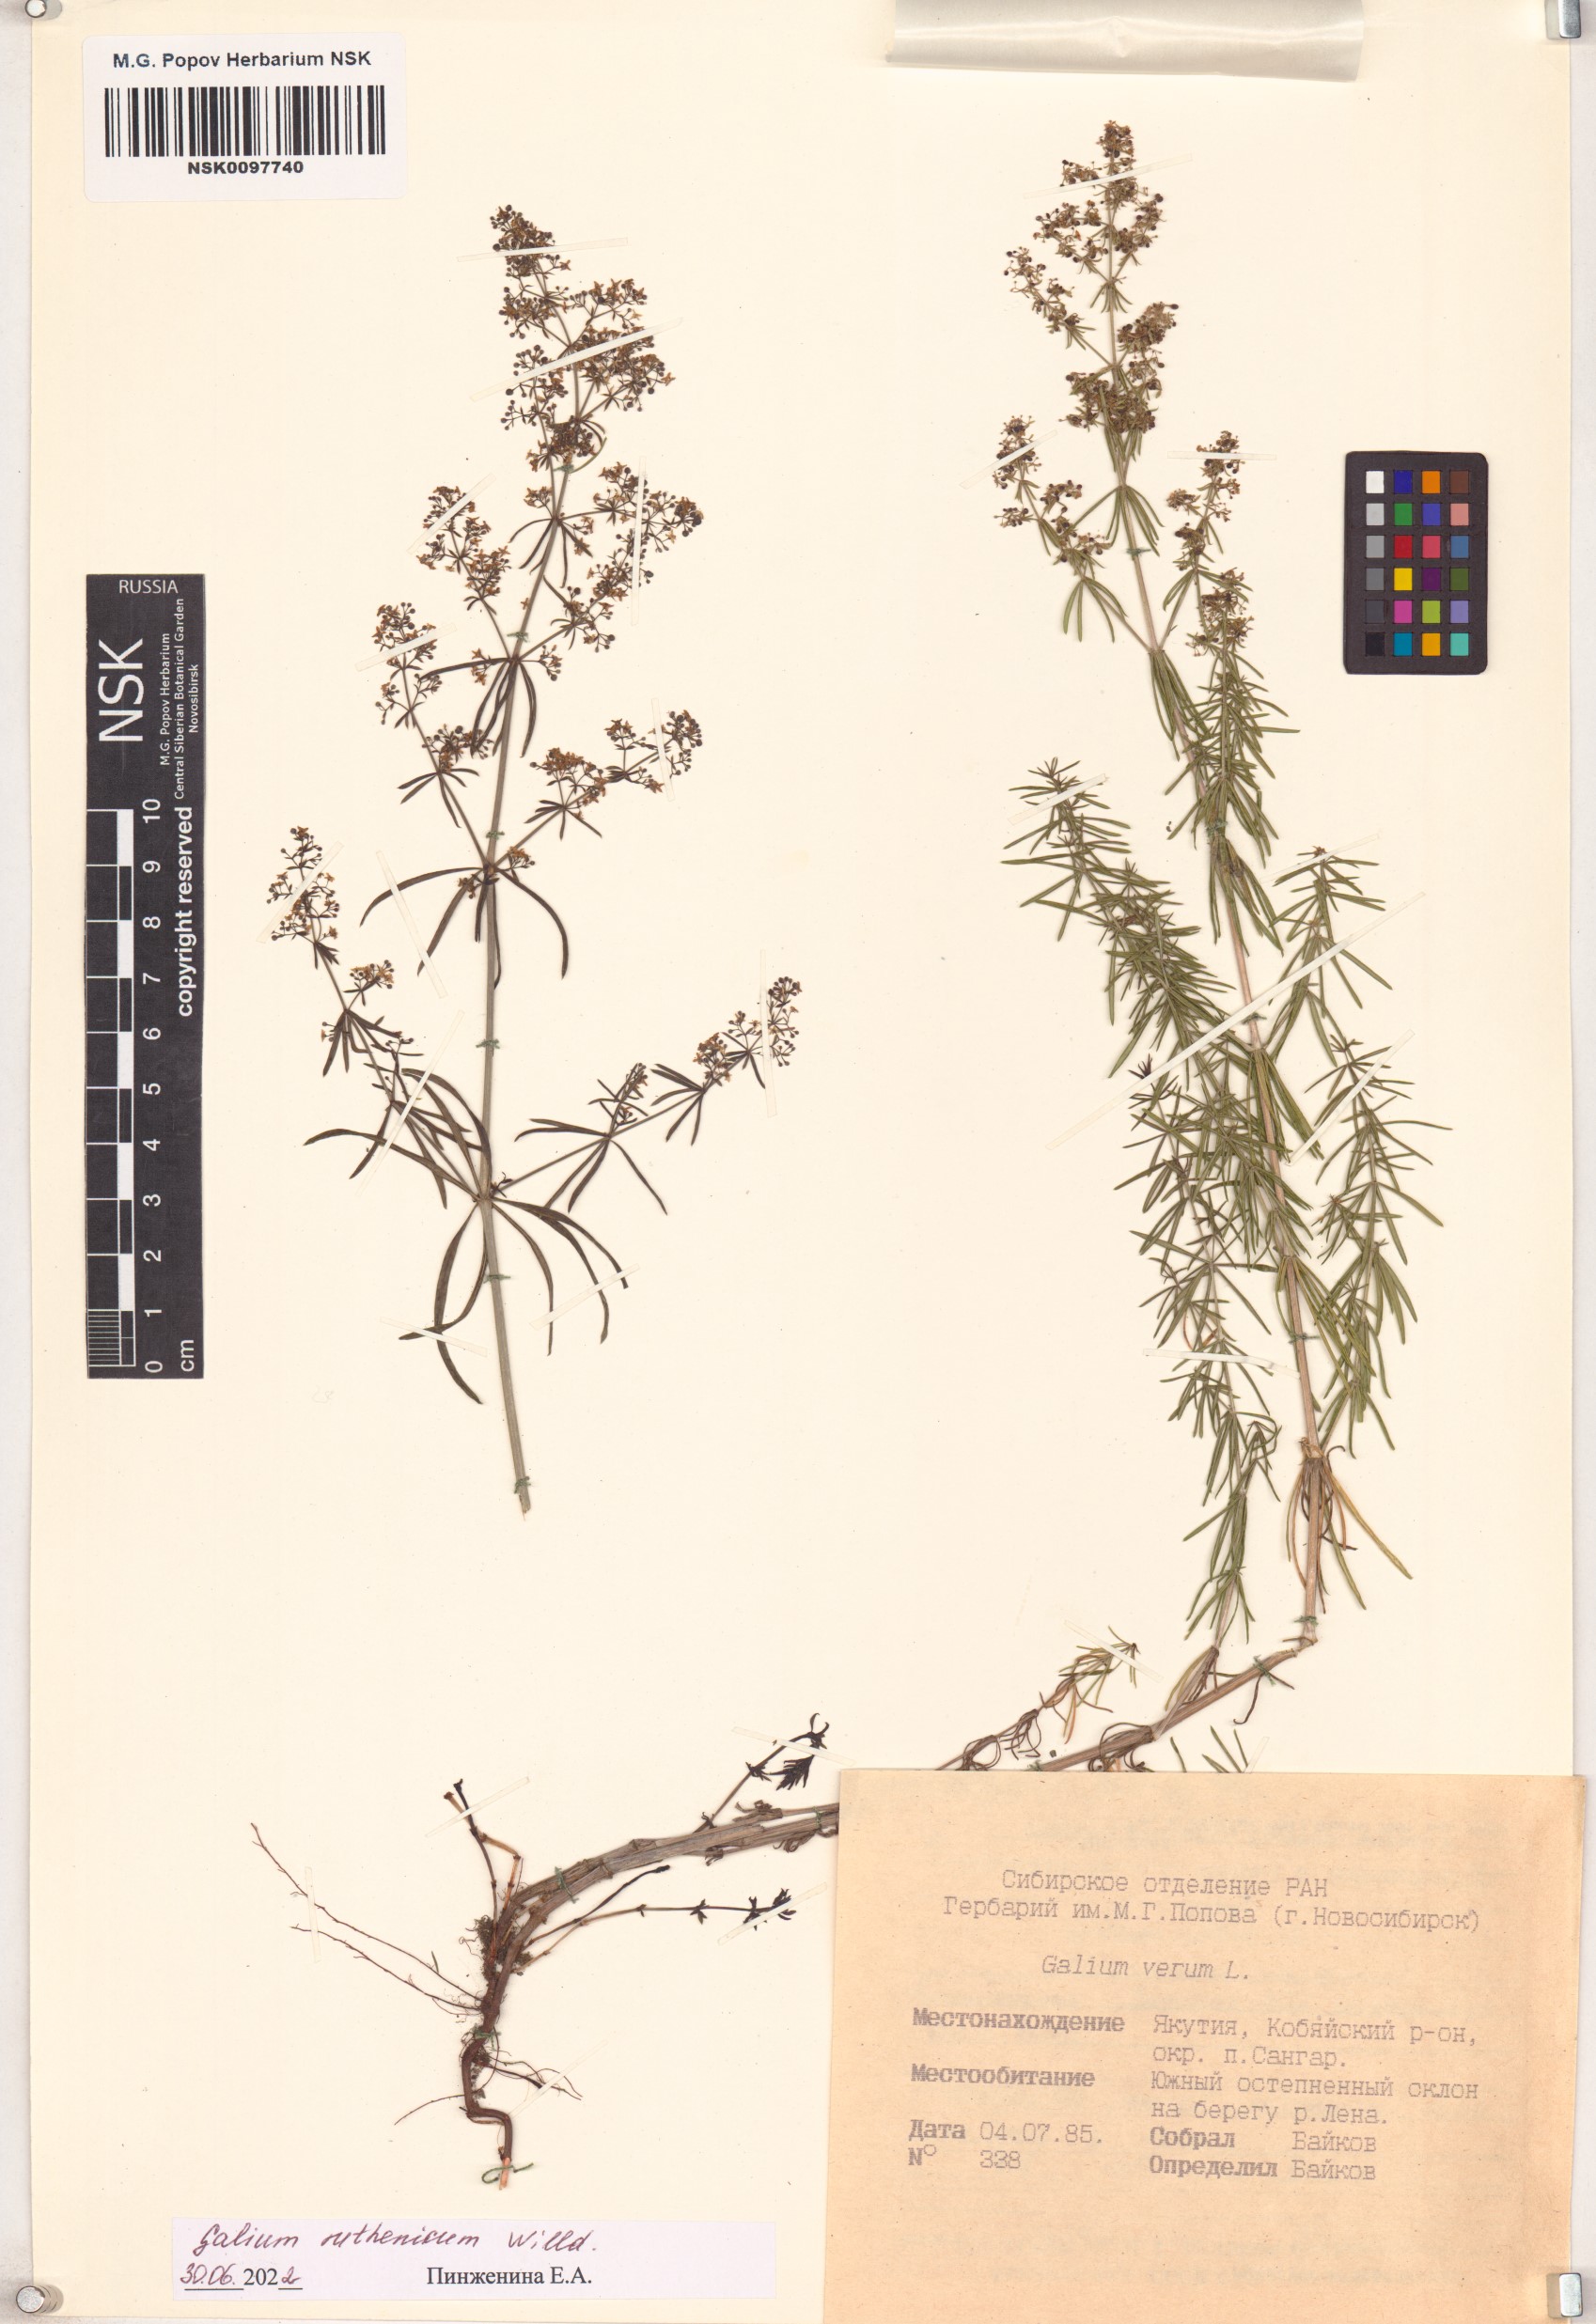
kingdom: Plantae
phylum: Tracheophyta
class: Magnoliopsida
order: Gentianales
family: Rubiaceae
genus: Galium
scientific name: Galium verum
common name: Lady's bedstraw
